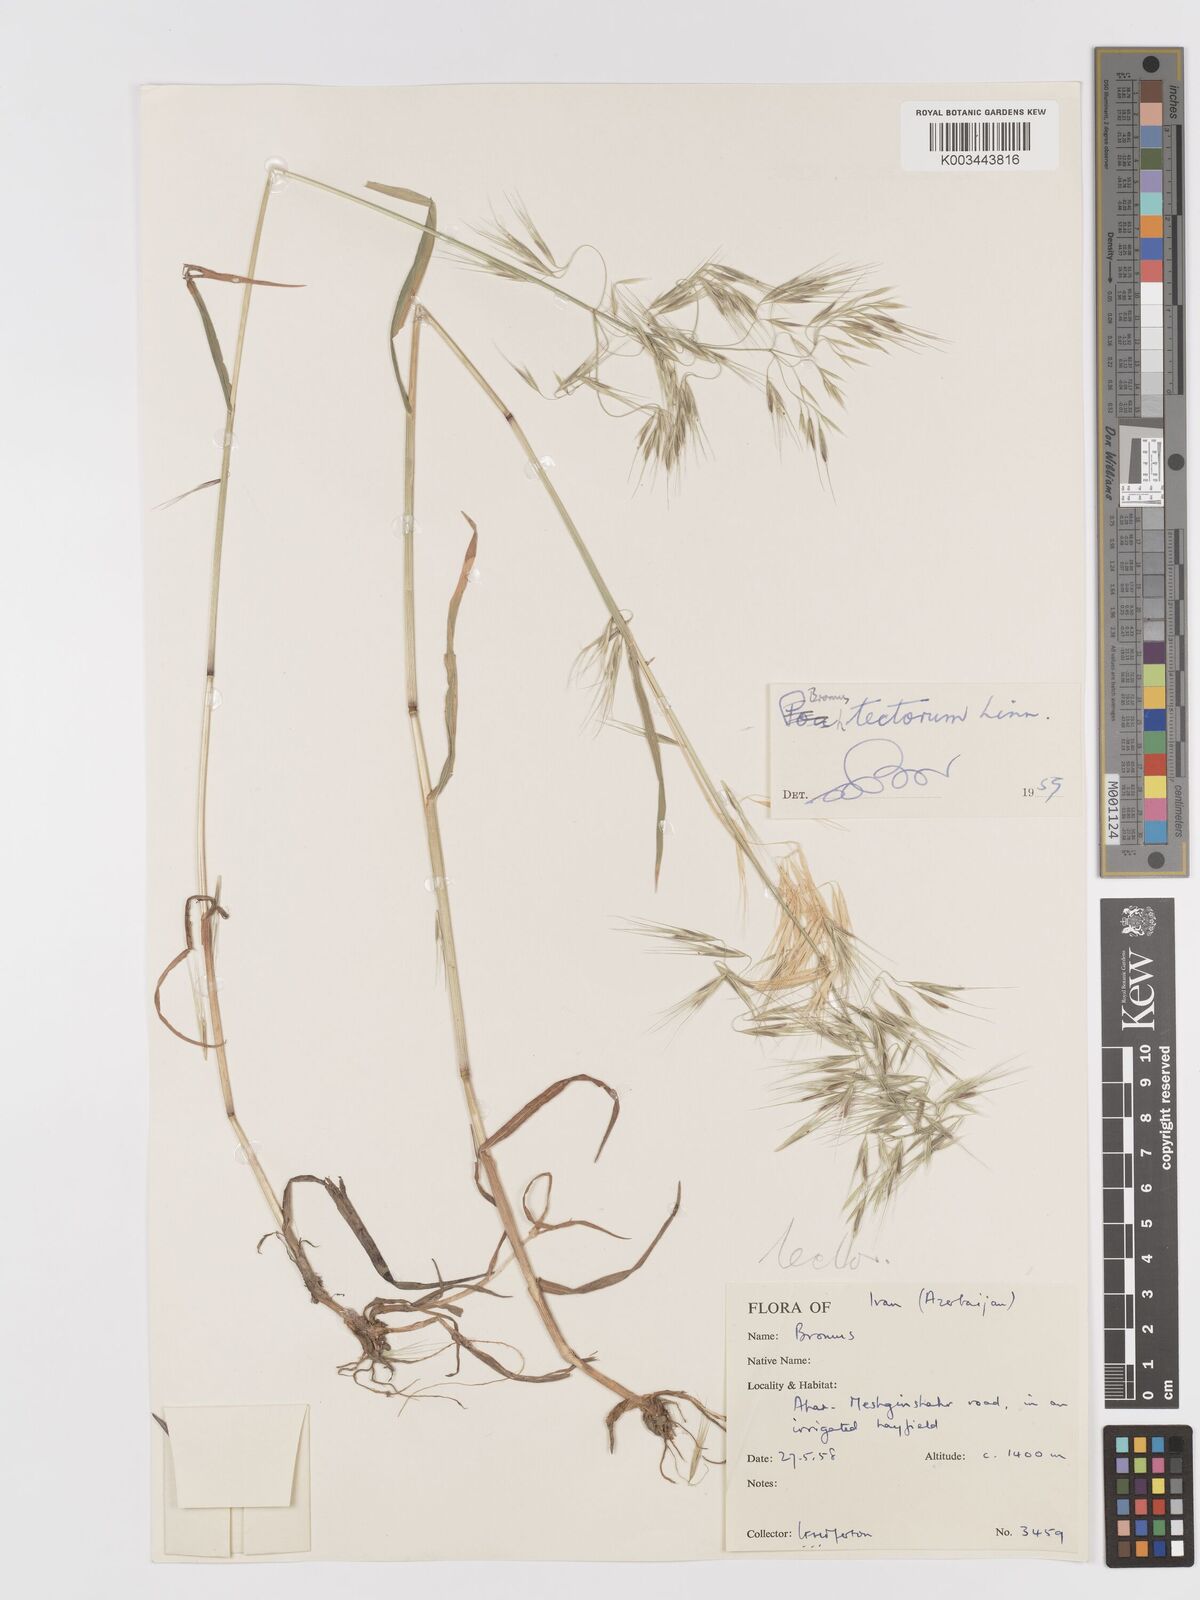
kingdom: Plantae
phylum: Tracheophyta
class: Liliopsida
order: Poales
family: Poaceae
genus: Bromus
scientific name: Bromus tectorum
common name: Cheatgrass
